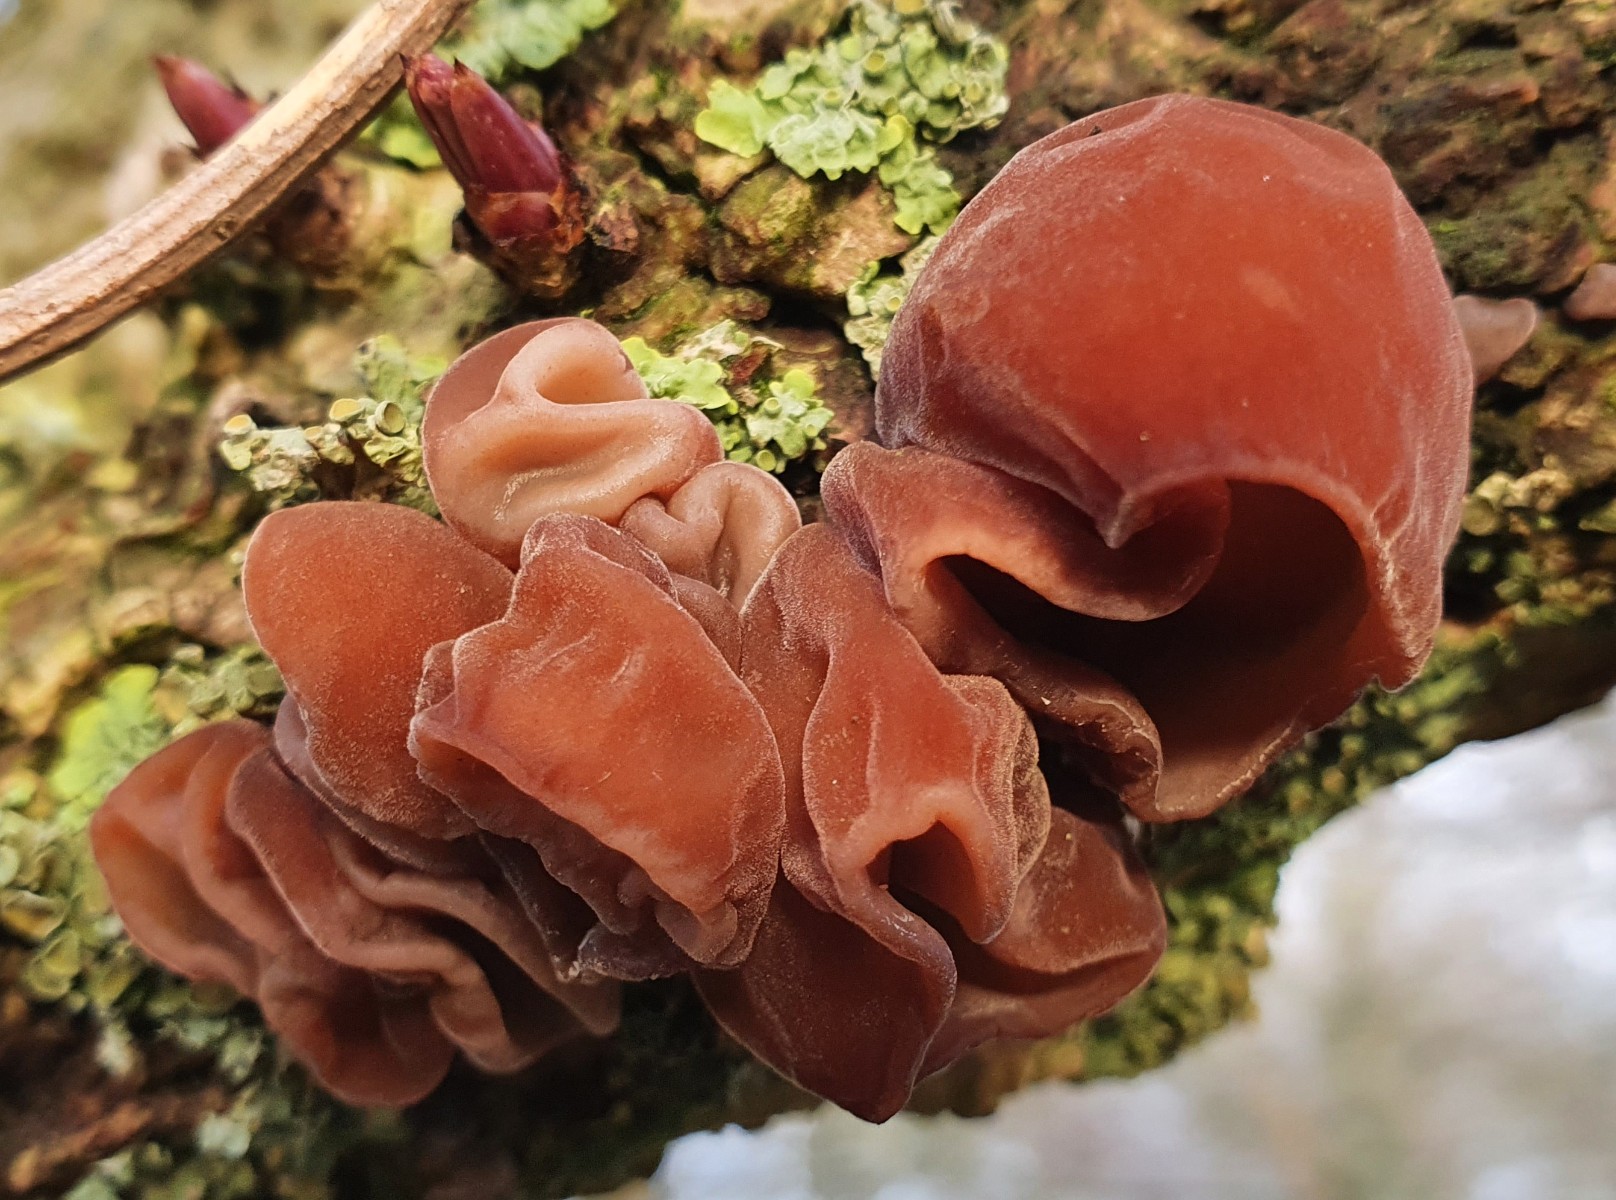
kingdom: Fungi
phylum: Basidiomycota
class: Agaricomycetes
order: Auriculariales
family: Auriculariaceae
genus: Auricularia
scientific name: Auricularia auricula-judae
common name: almindelig judasøre
